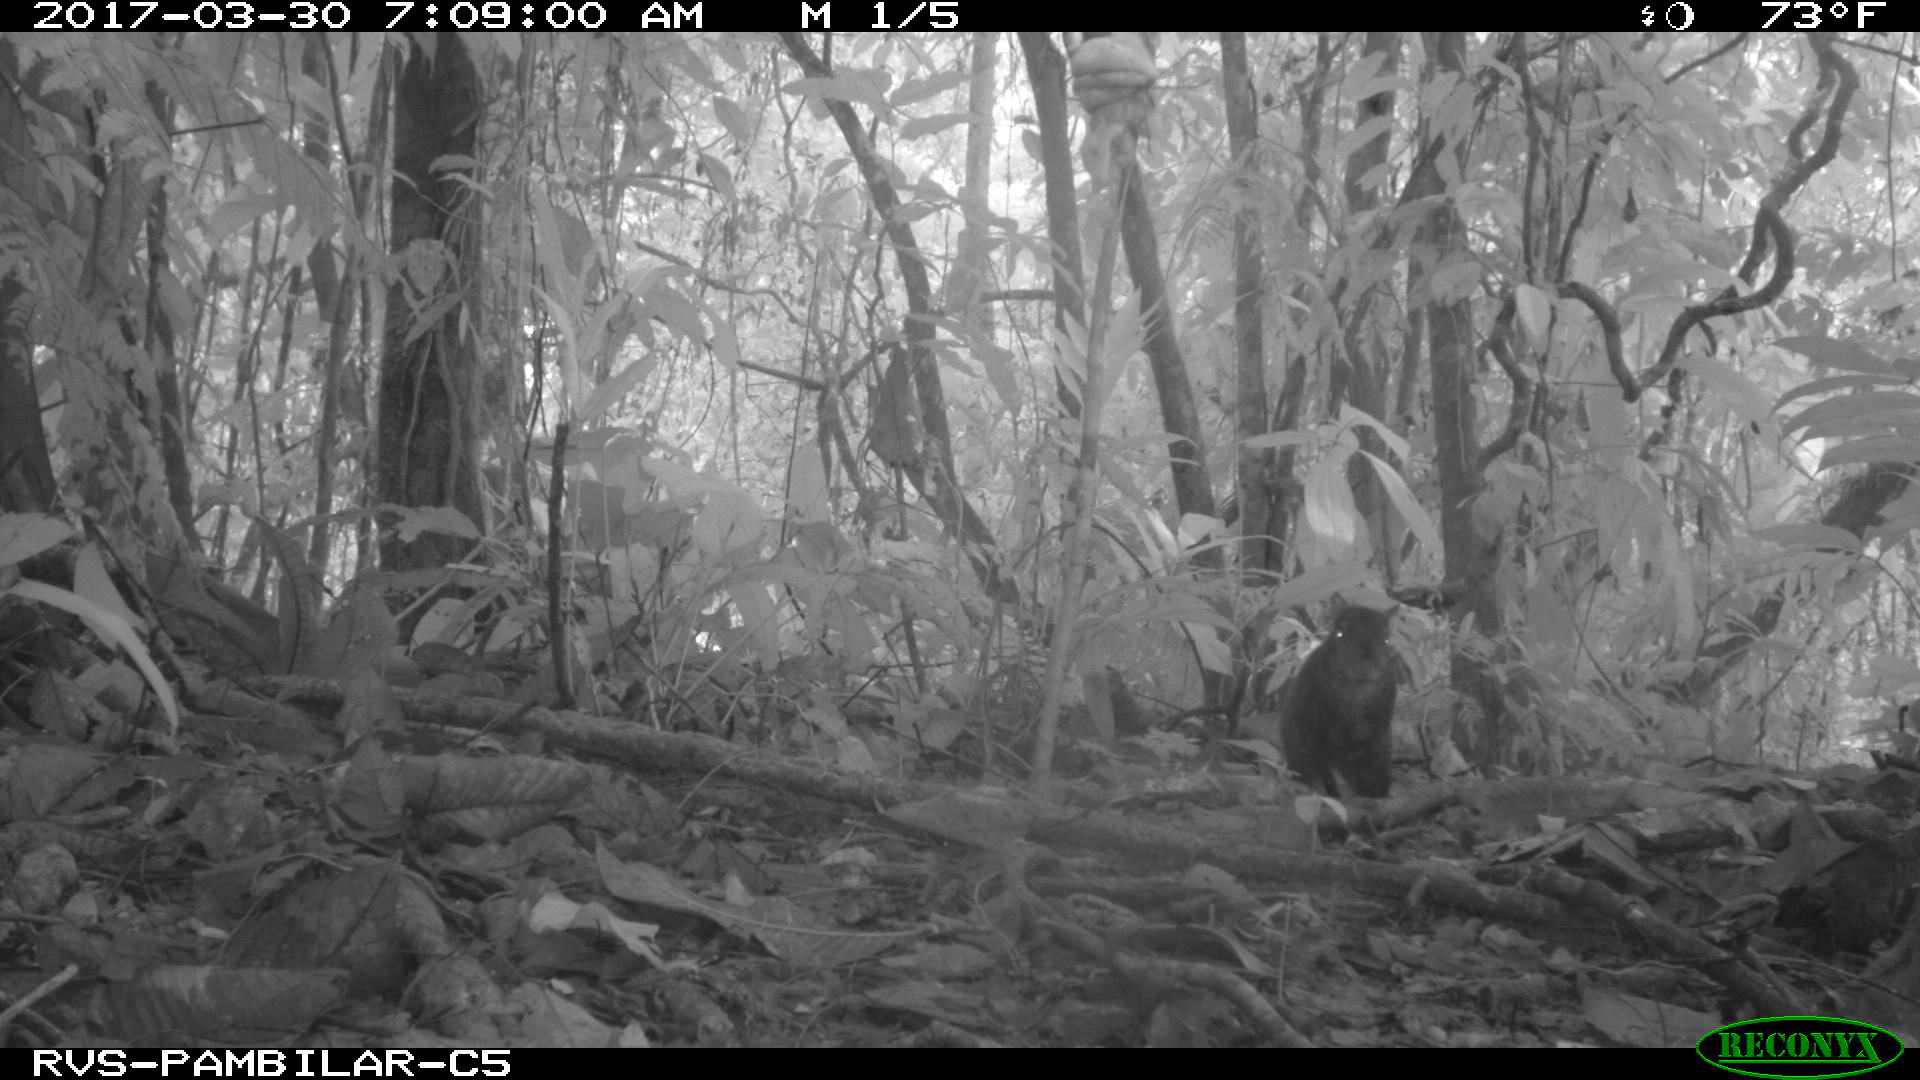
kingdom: Animalia
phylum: Chordata
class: Mammalia
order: Rodentia
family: Dasyproctidae
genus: Dasyprocta
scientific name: Dasyprocta punctata
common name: Central american agouti
